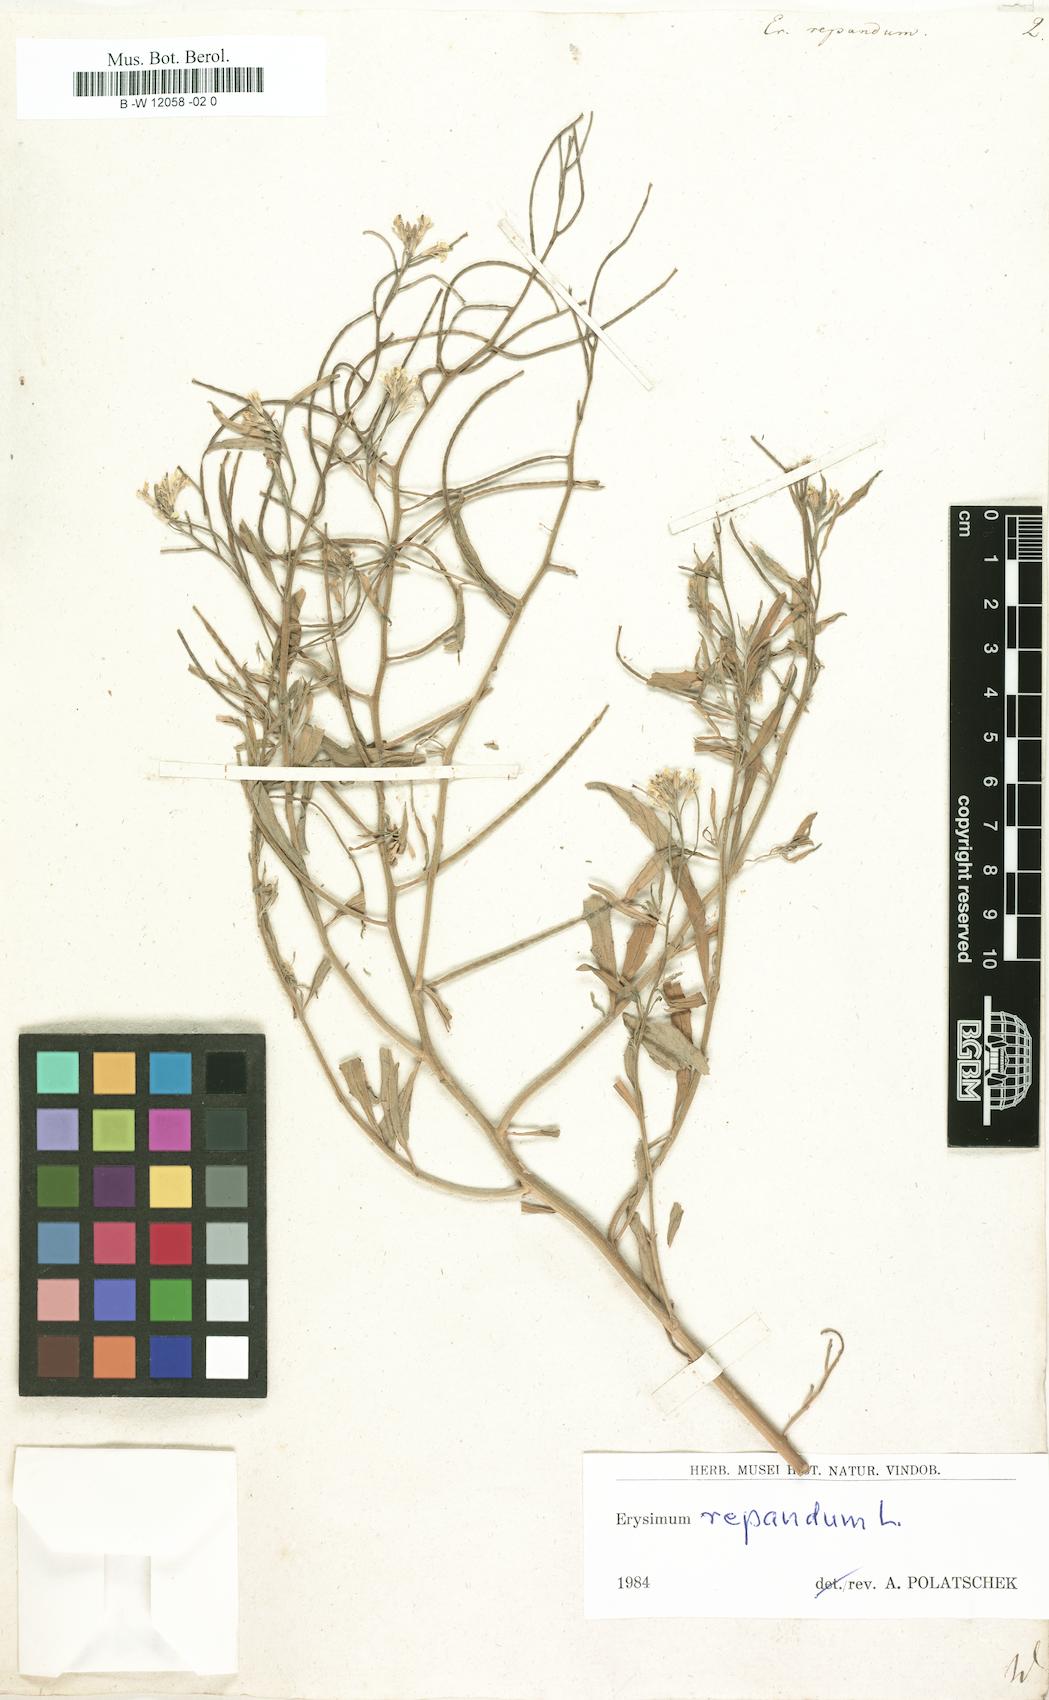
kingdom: Plantae
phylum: Tracheophyta
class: Magnoliopsida
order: Brassicales
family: Brassicaceae
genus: Erysimum
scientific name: Erysimum repandum
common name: Spreading wallflower
